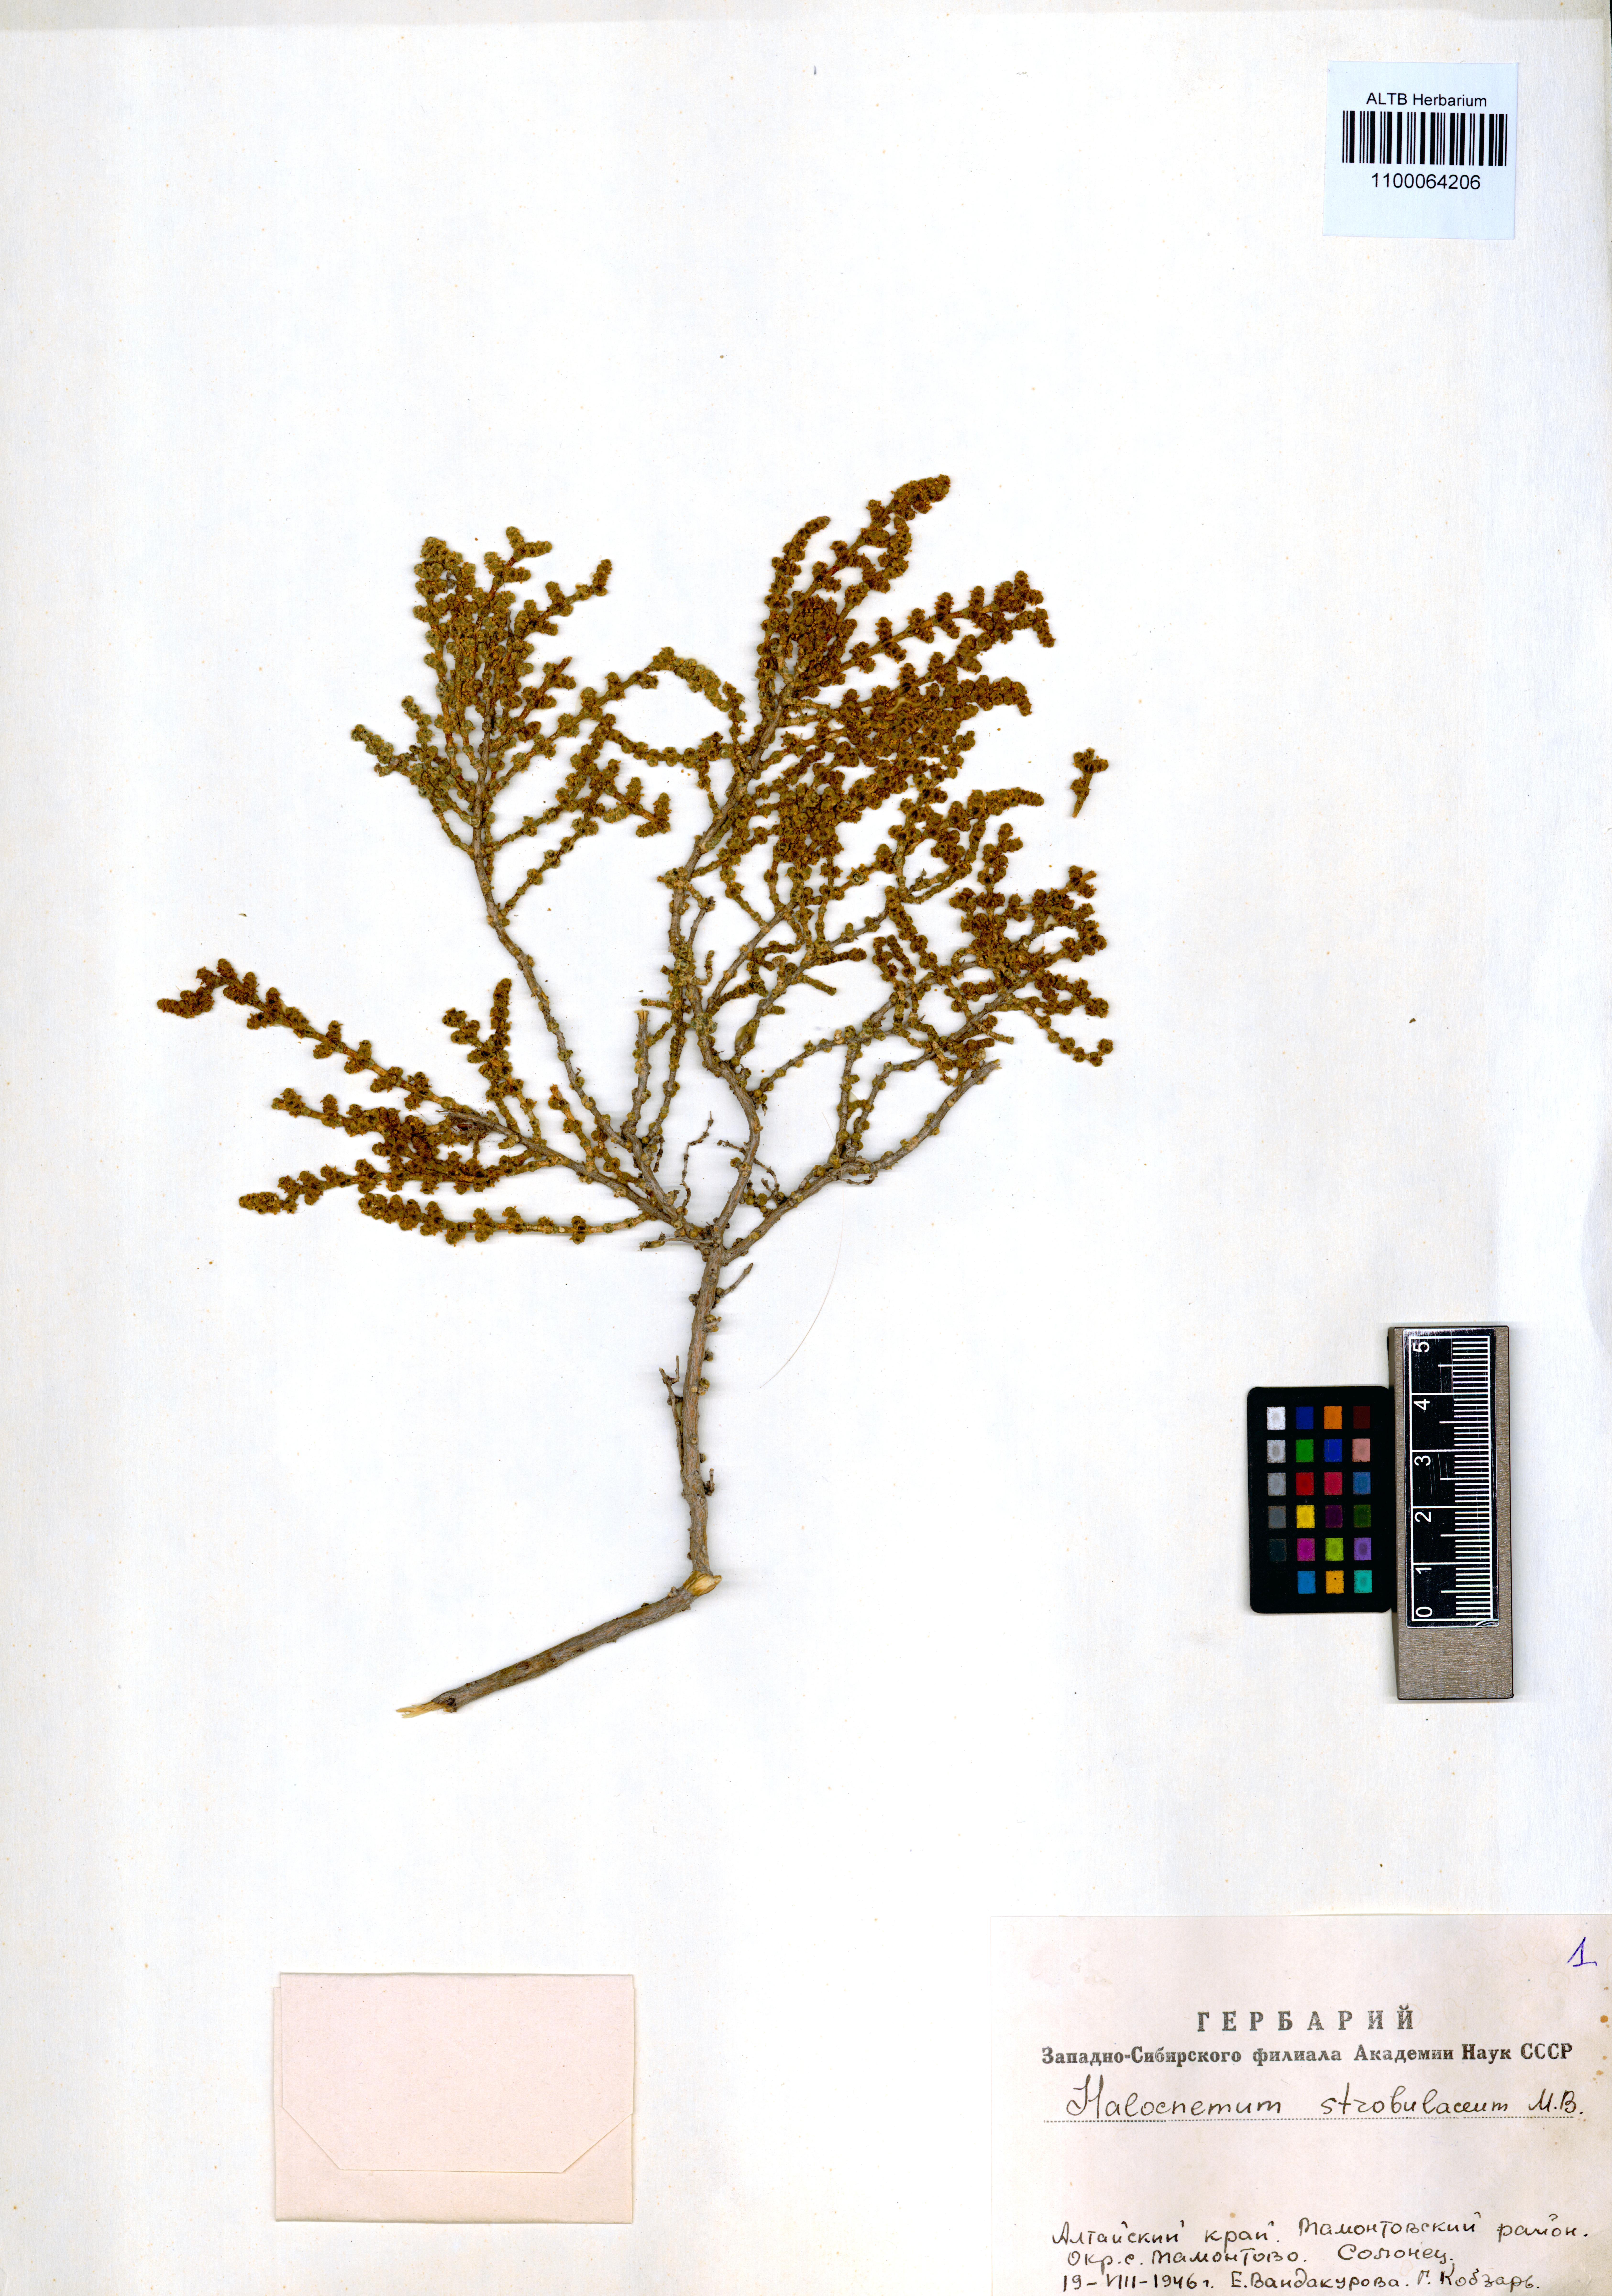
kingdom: Plantae
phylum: Tracheophyta
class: Magnoliopsida
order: Caryophyllales
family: Amaranthaceae
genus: Halocnemum
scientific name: Halocnemum strobilaceum
